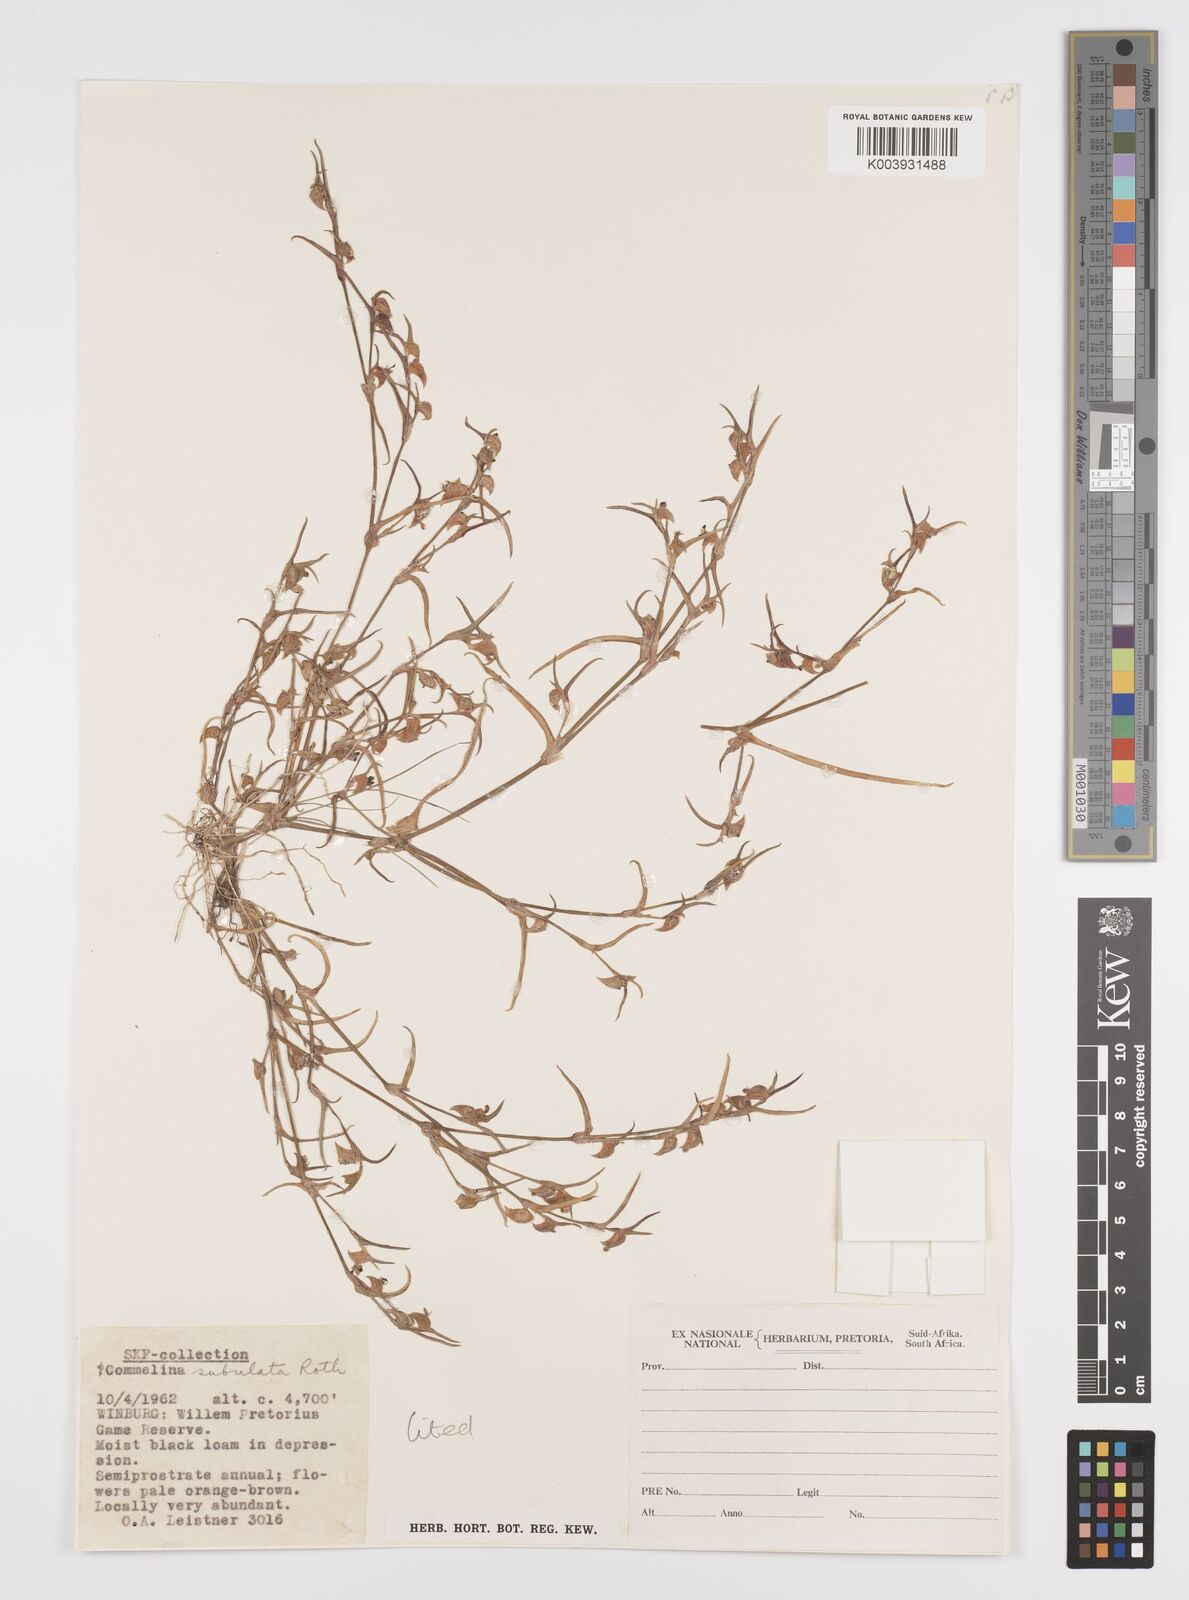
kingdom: Plantae
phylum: Tracheophyta
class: Liliopsida
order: Commelinales
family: Commelinaceae
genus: Commelina
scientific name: Commelina subulata
